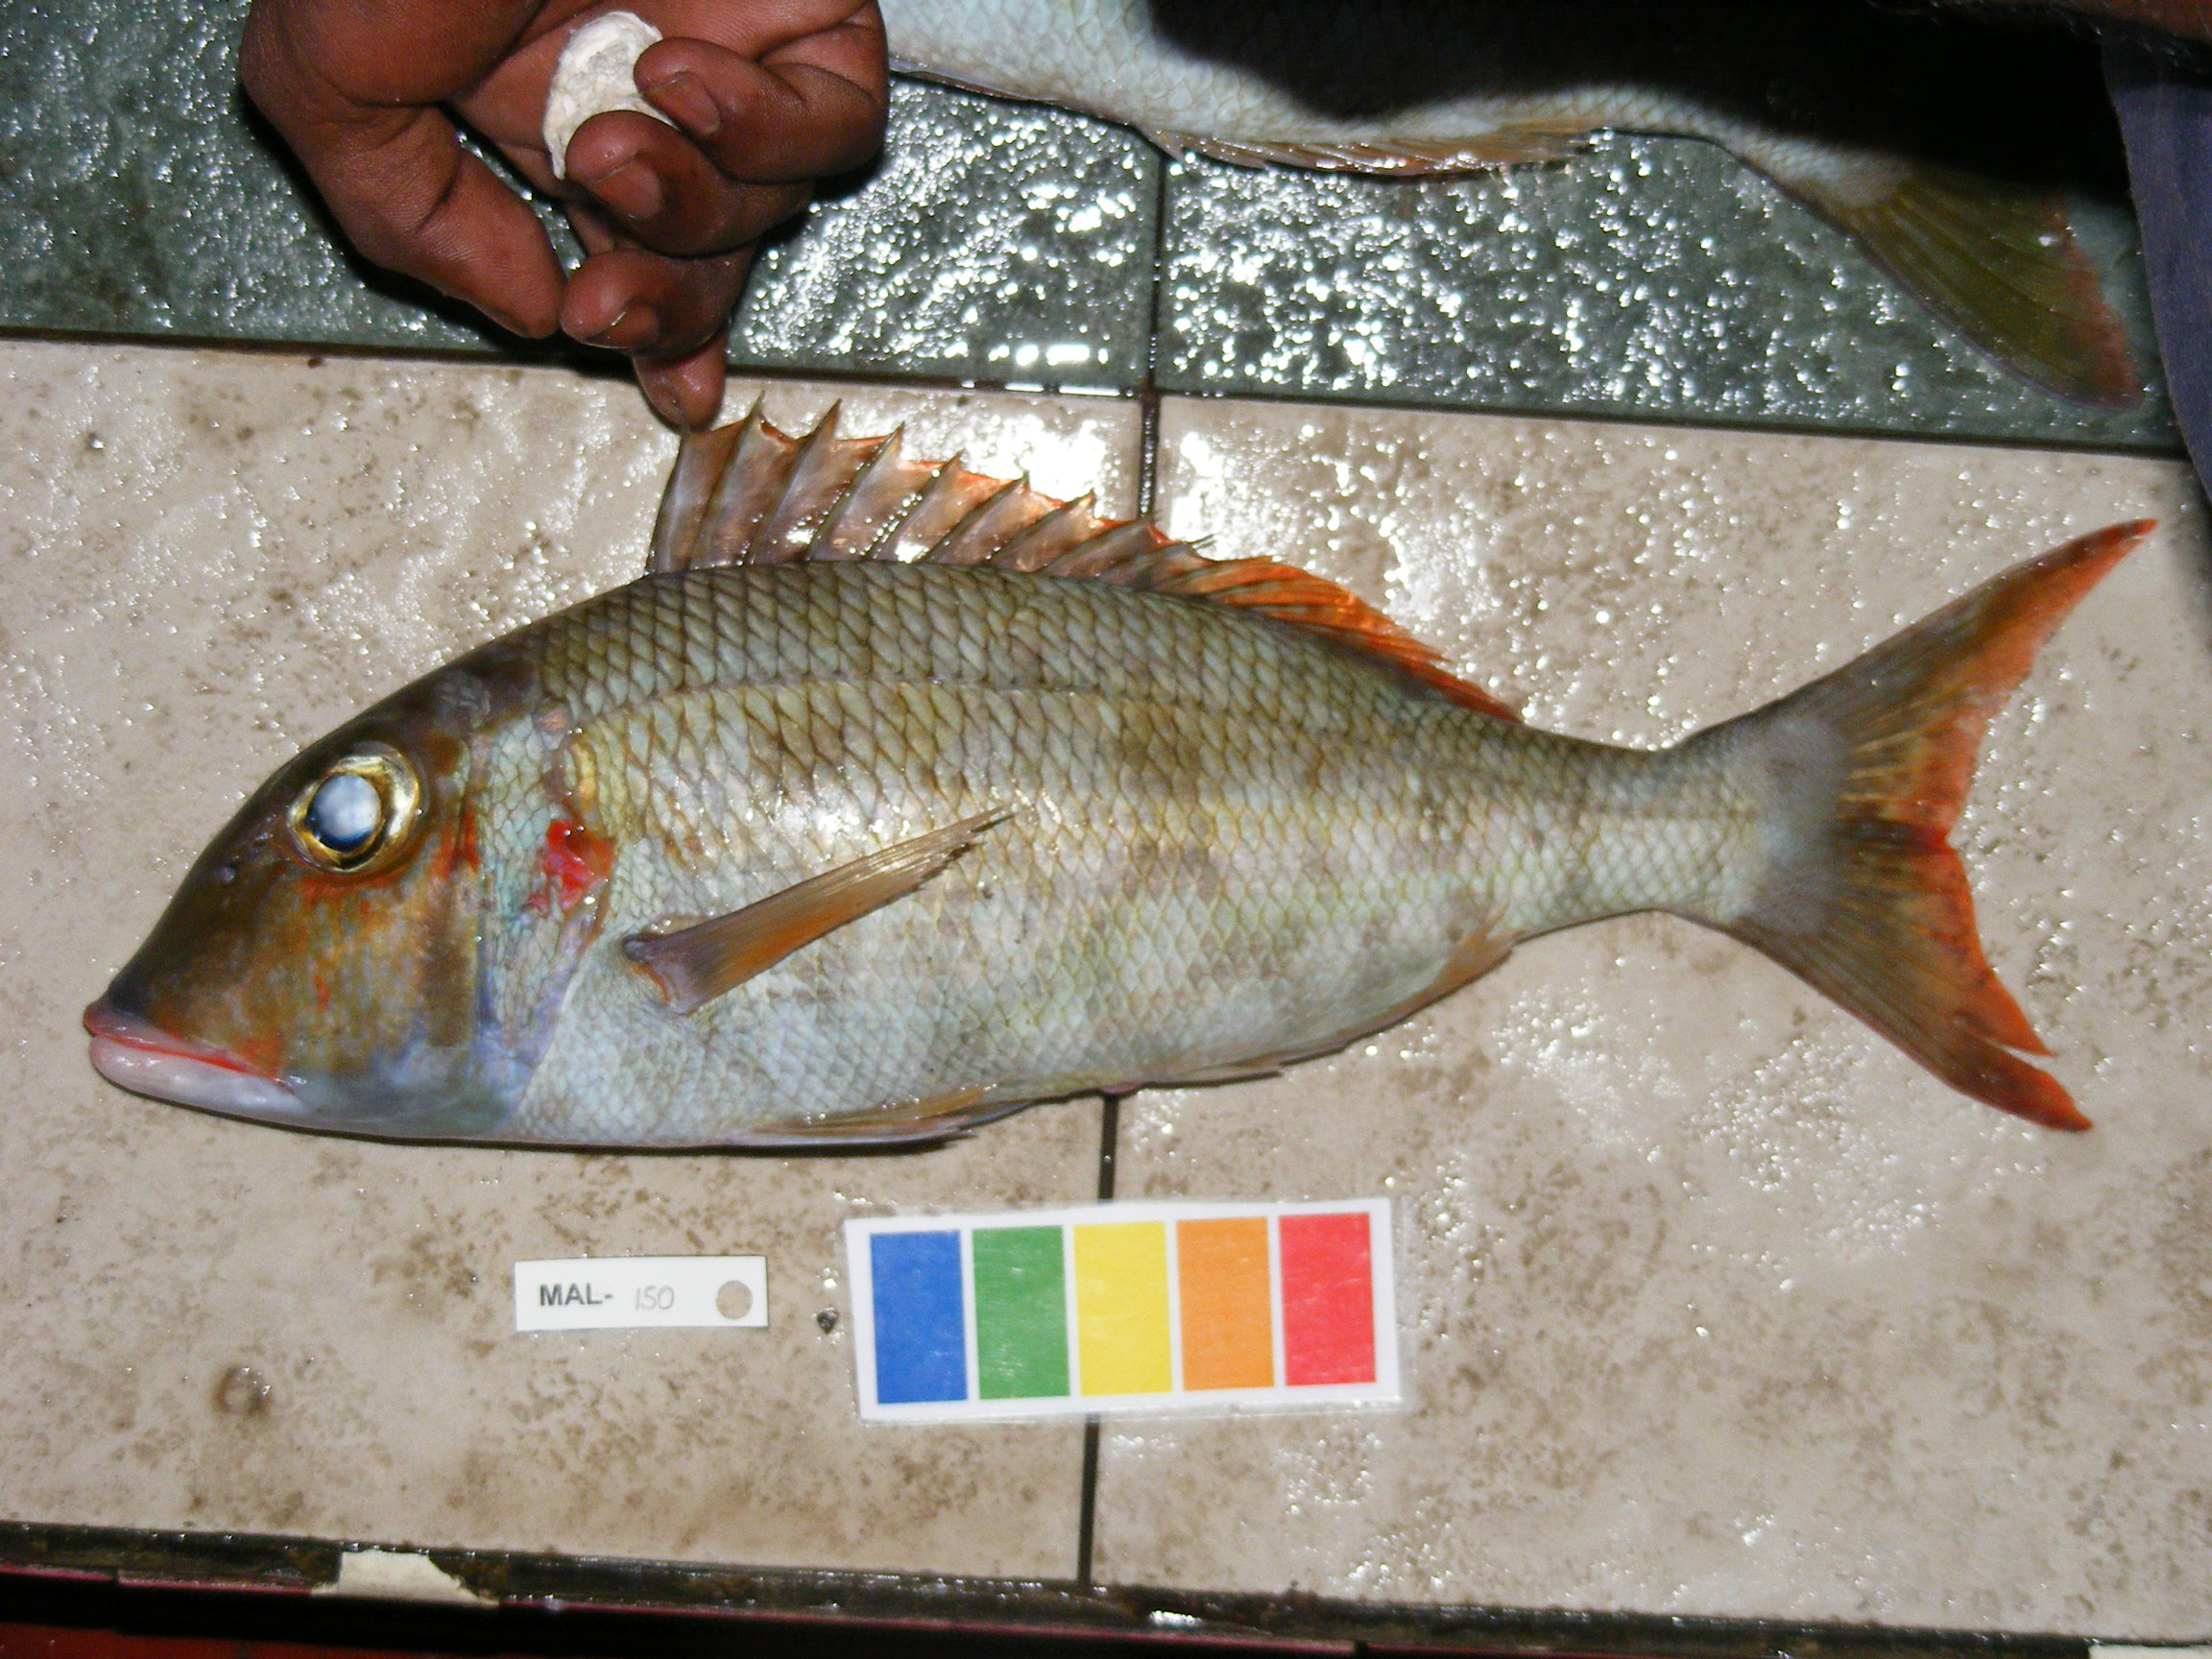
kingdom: Animalia
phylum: Chordata
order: Perciformes
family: Lethrinidae
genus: Lethrinus
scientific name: Lethrinus rubrioperculatus
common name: Spotcheek emperor
